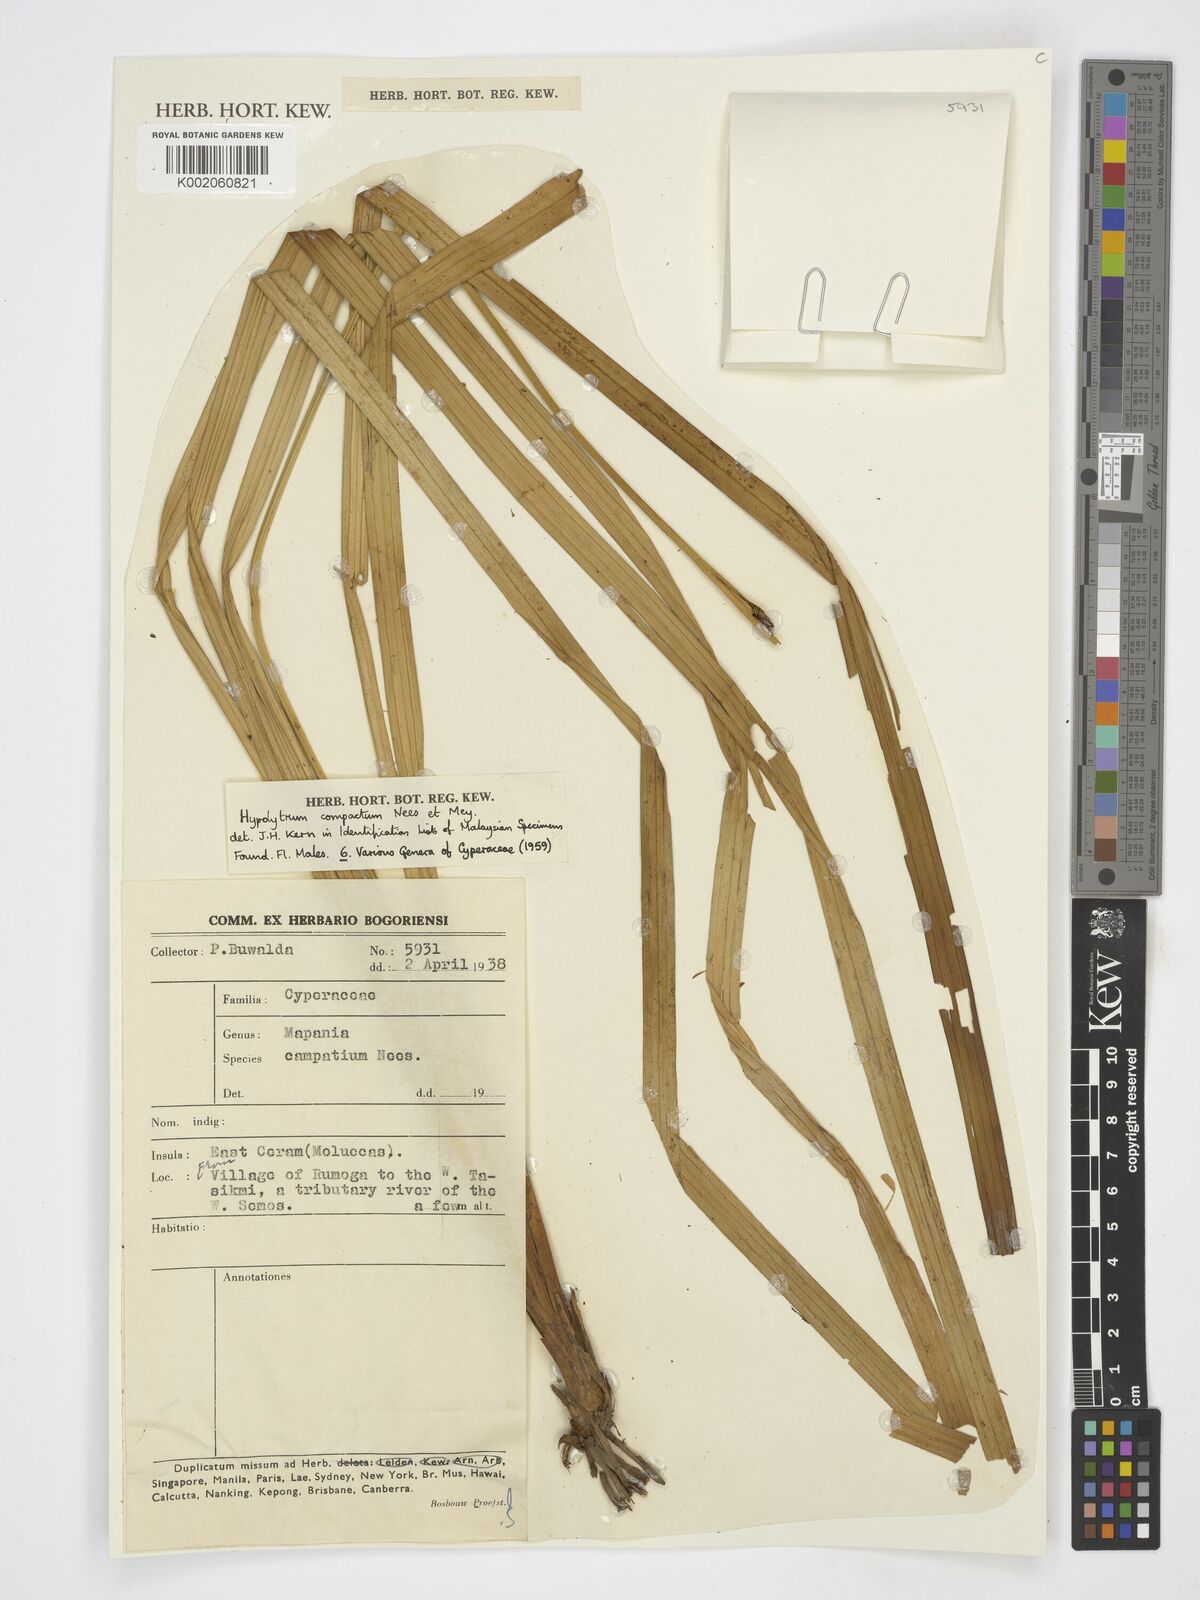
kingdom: Plantae
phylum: Tracheophyta
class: Liliopsida
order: Poales
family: Cyperaceae
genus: Hypolytrum
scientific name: Hypolytrum compactum
